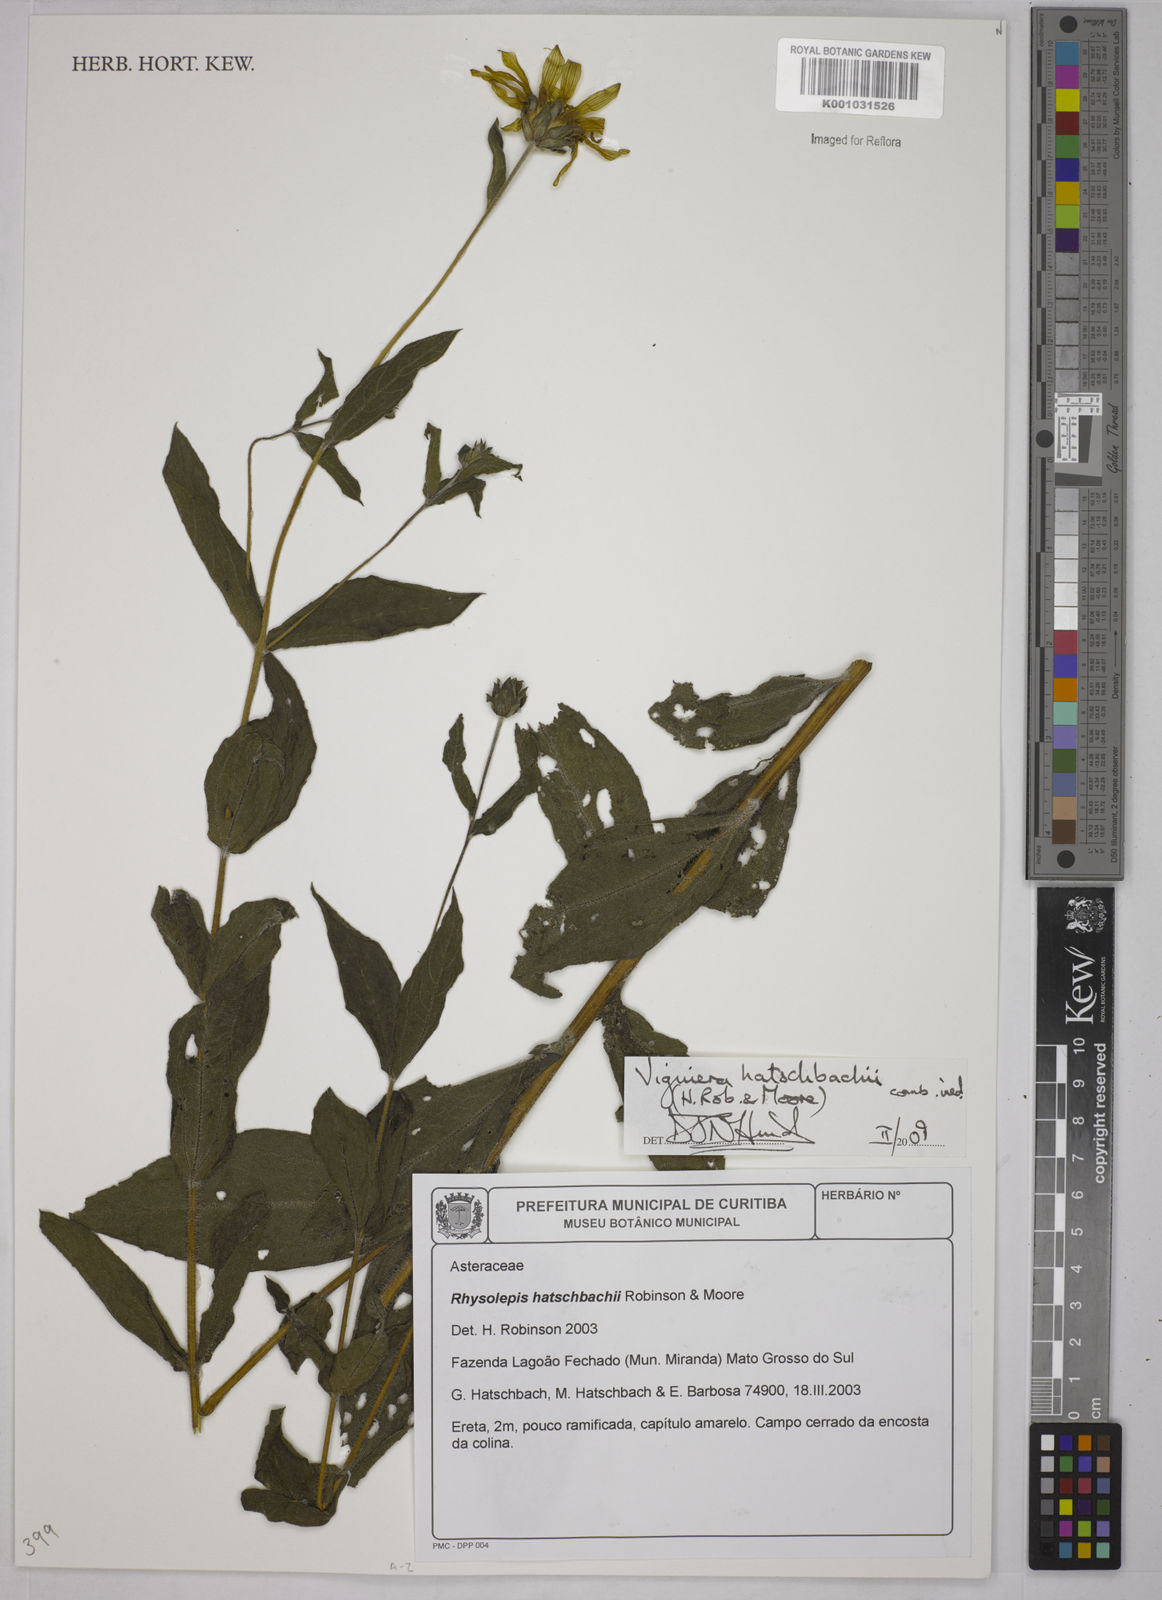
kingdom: Plantae
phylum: Tracheophyta
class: Magnoliopsida
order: Asterales
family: Asteraceae
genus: Viguiera
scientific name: Viguiera
